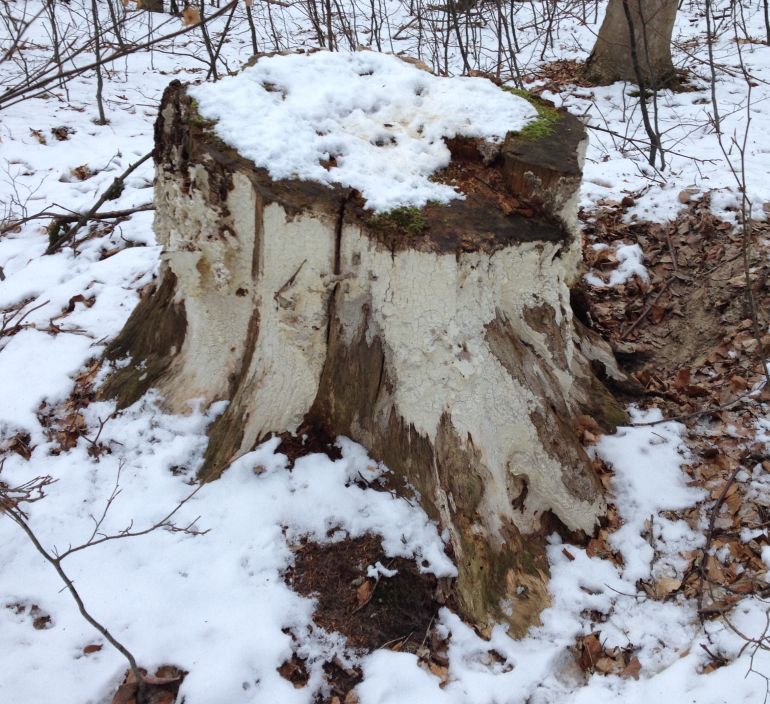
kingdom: Fungi
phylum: Basidiomycota
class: Agaricomycetes
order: Polyporales
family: Fomitopsidaceae
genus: Daedalea
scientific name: Daedalea xantha
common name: gul sejporesvamp
